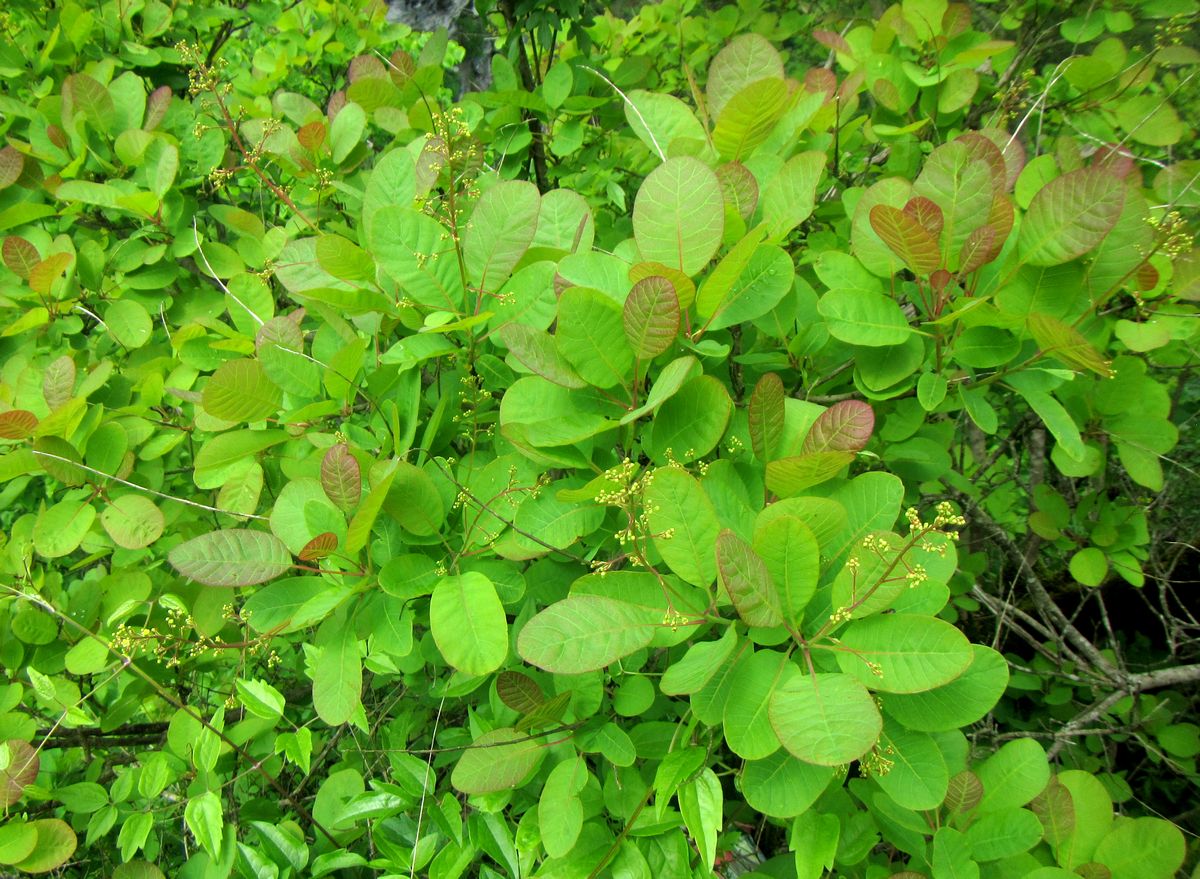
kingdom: Plantae
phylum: Tracheophyta
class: Magnoliopsida
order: Sapindales
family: Anacardiaceae
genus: Cotinus
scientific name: Cotinus coggygria
